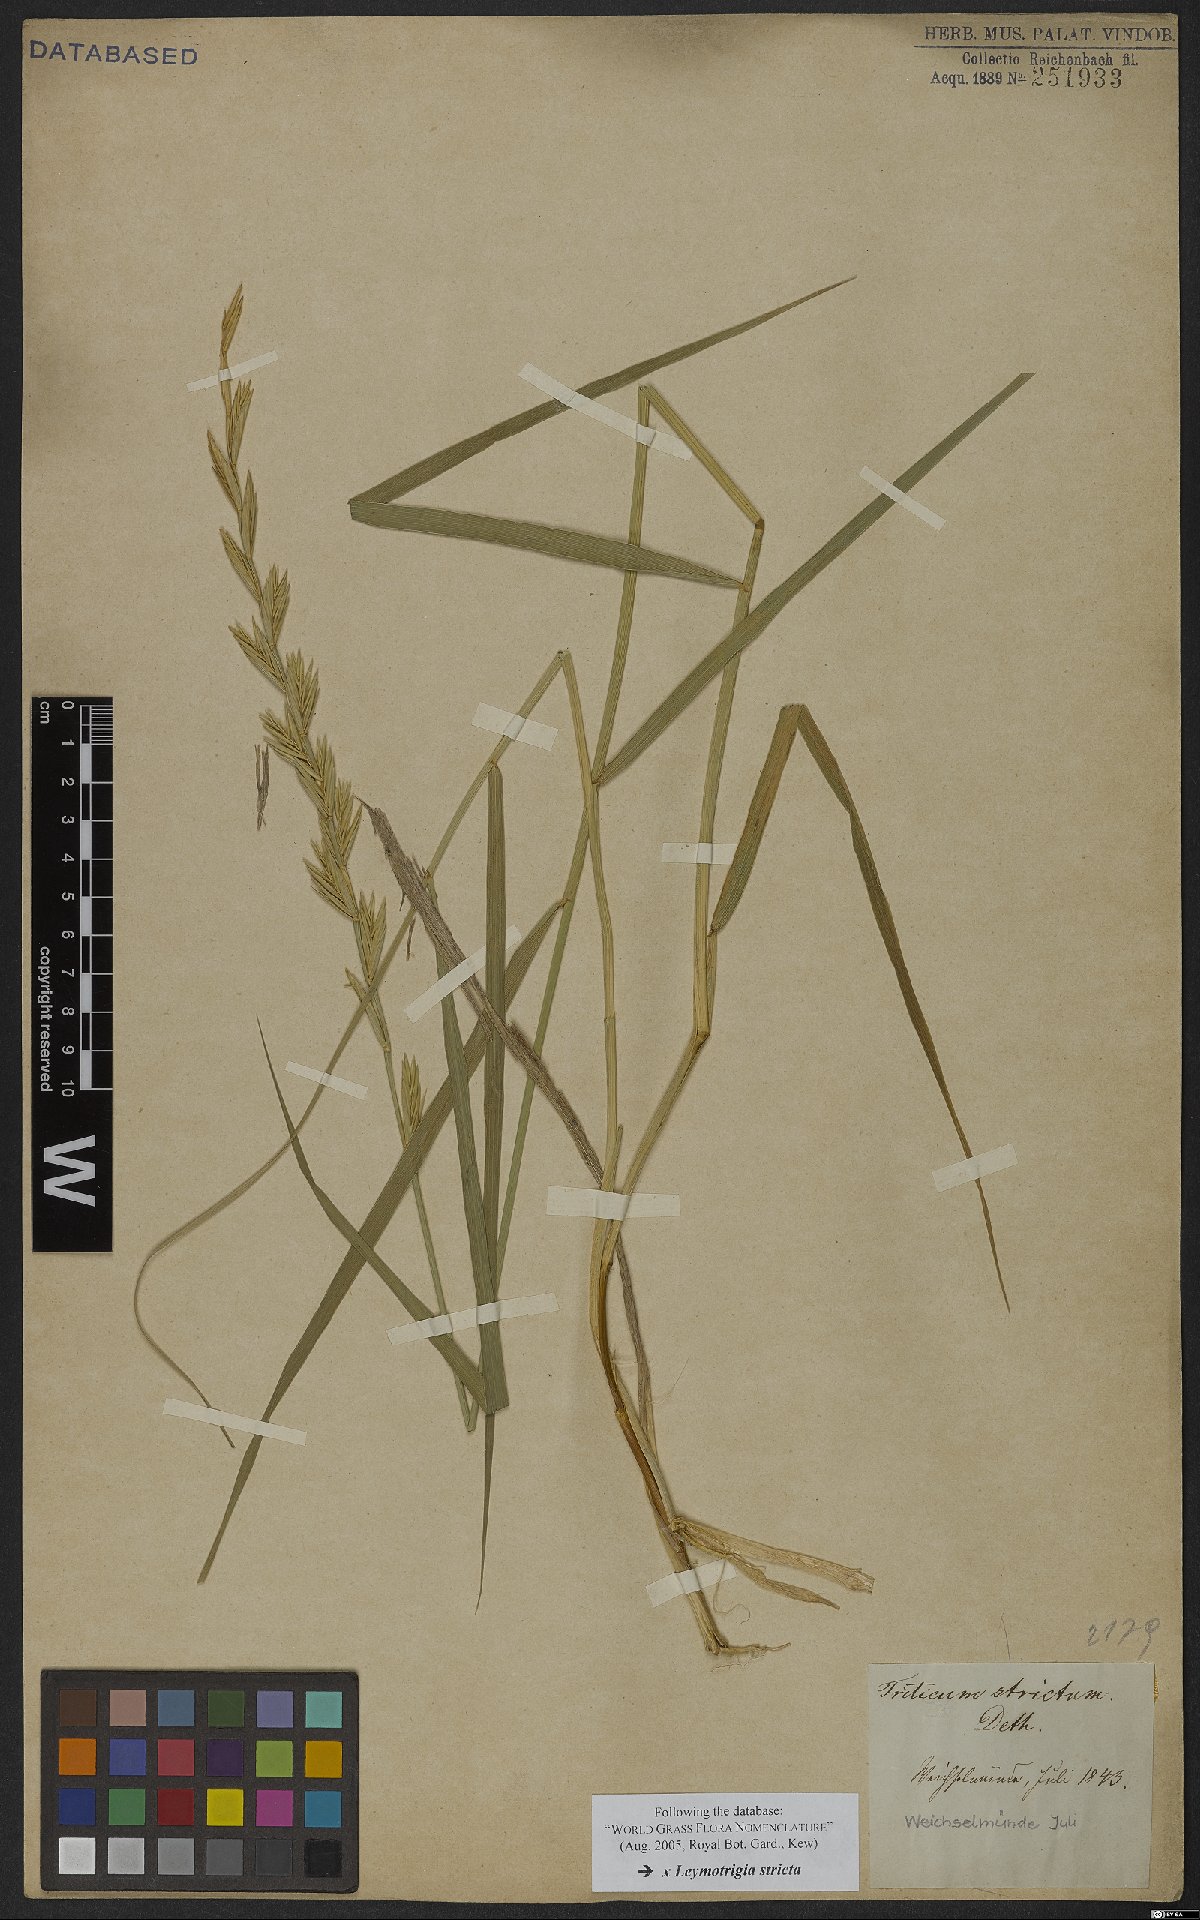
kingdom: Plantae
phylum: Tracheophyta
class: Liliopsida
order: Poales
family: Poaceae
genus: Elyleymus
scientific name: Elyleymus strictus
